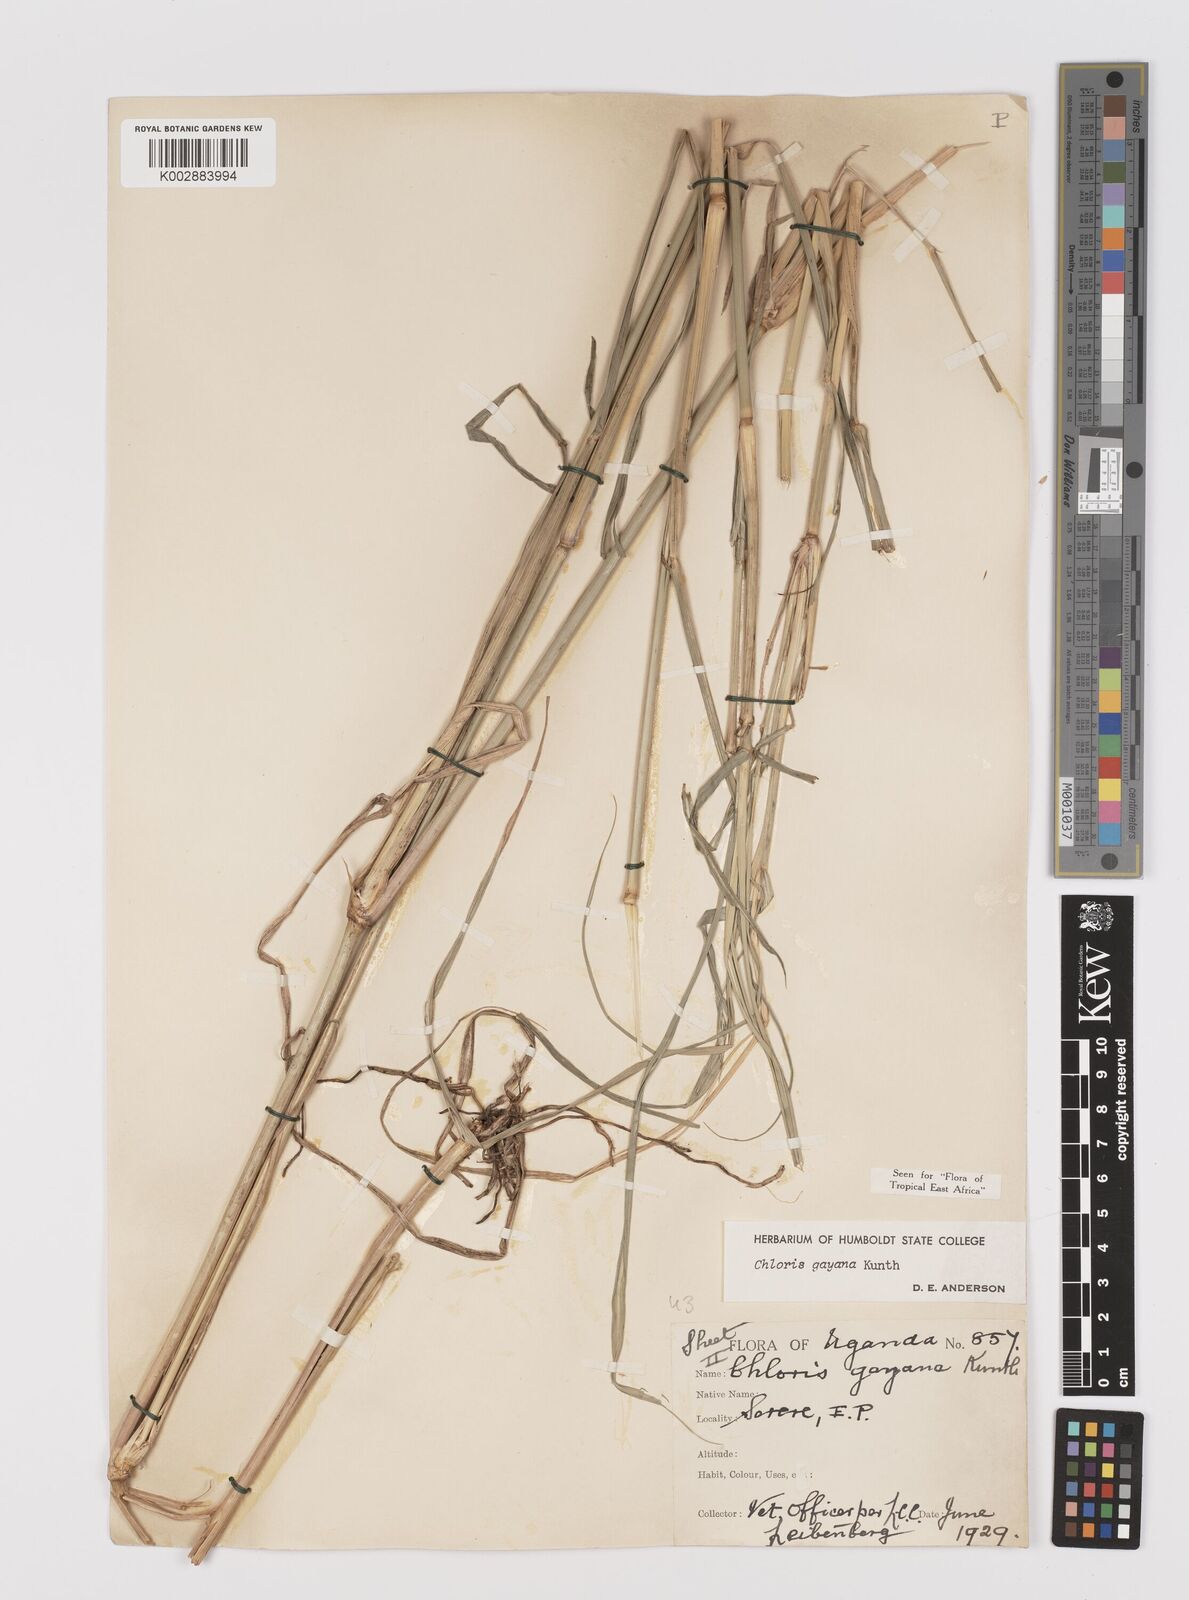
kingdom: Plantae
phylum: Tracheophyta
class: Liliopsida
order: Poales
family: Poaceae
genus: Chloris
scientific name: Chloris gayana
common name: Rhodes grass
